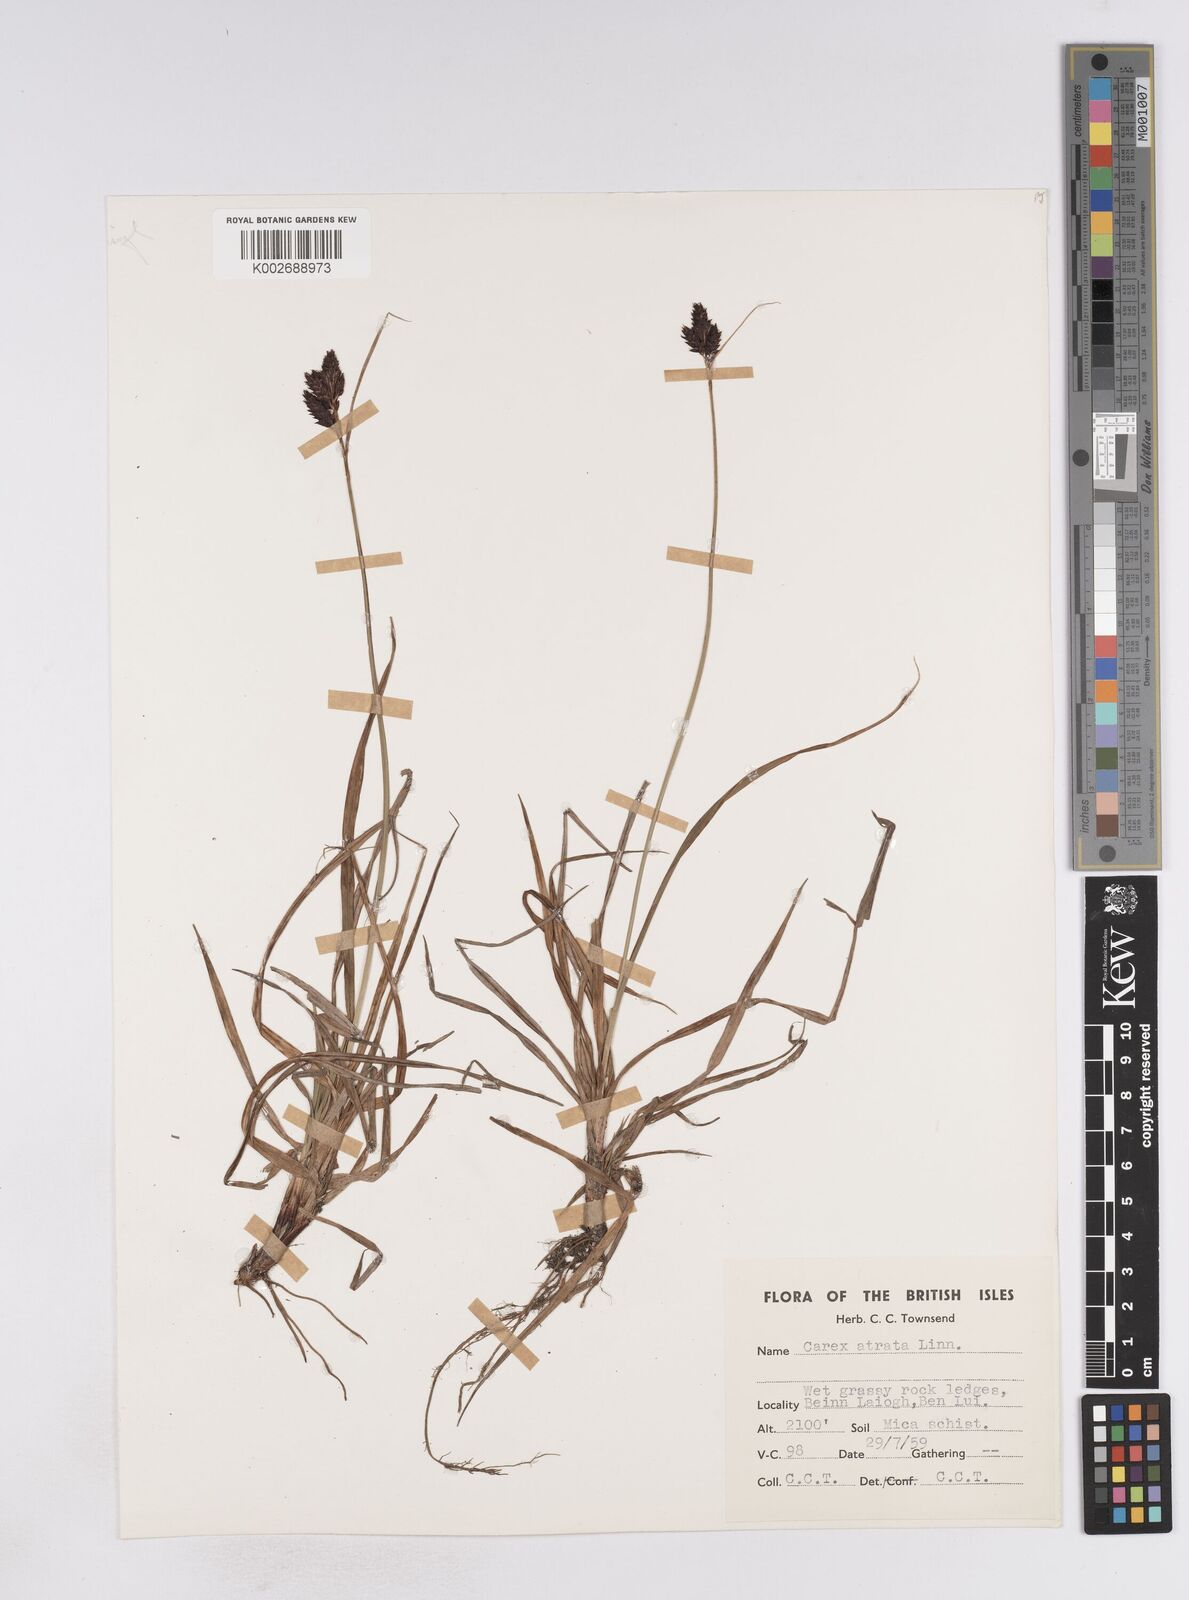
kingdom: Plantae
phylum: Tracheophyta
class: Liliopsida
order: Poales
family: Cyperaceae
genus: Carex
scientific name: Carex atrata
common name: Black alpine sedge
